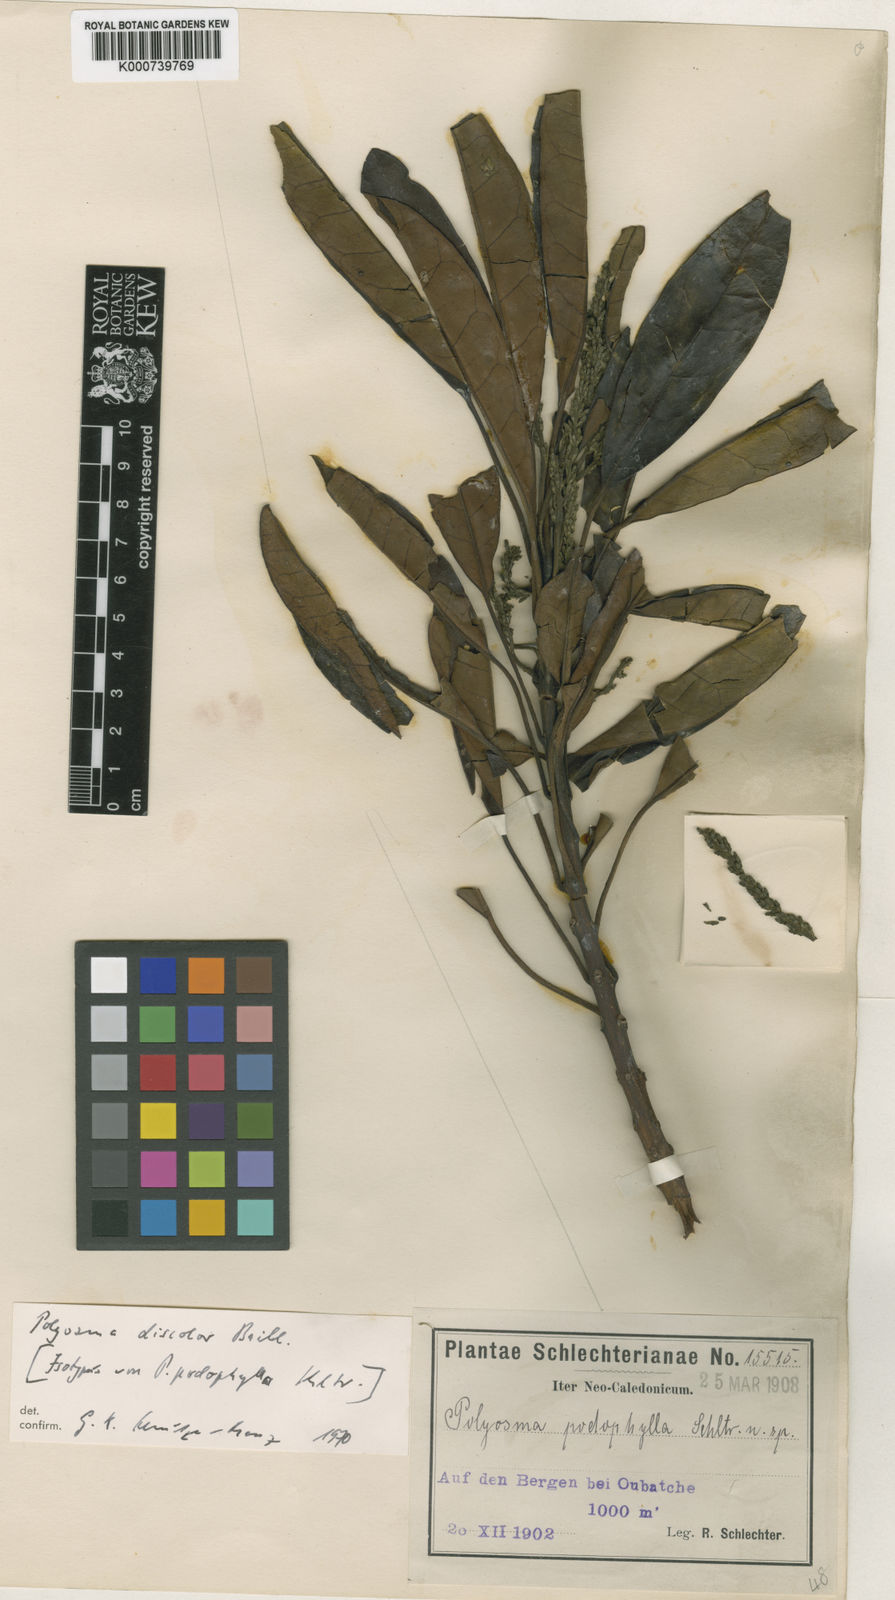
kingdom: Plantae
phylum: Tracheophyta
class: Magnoliopsida
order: Escalloniales
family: Escalloniaceae
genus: Polyosma
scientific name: Polyosma discolor
